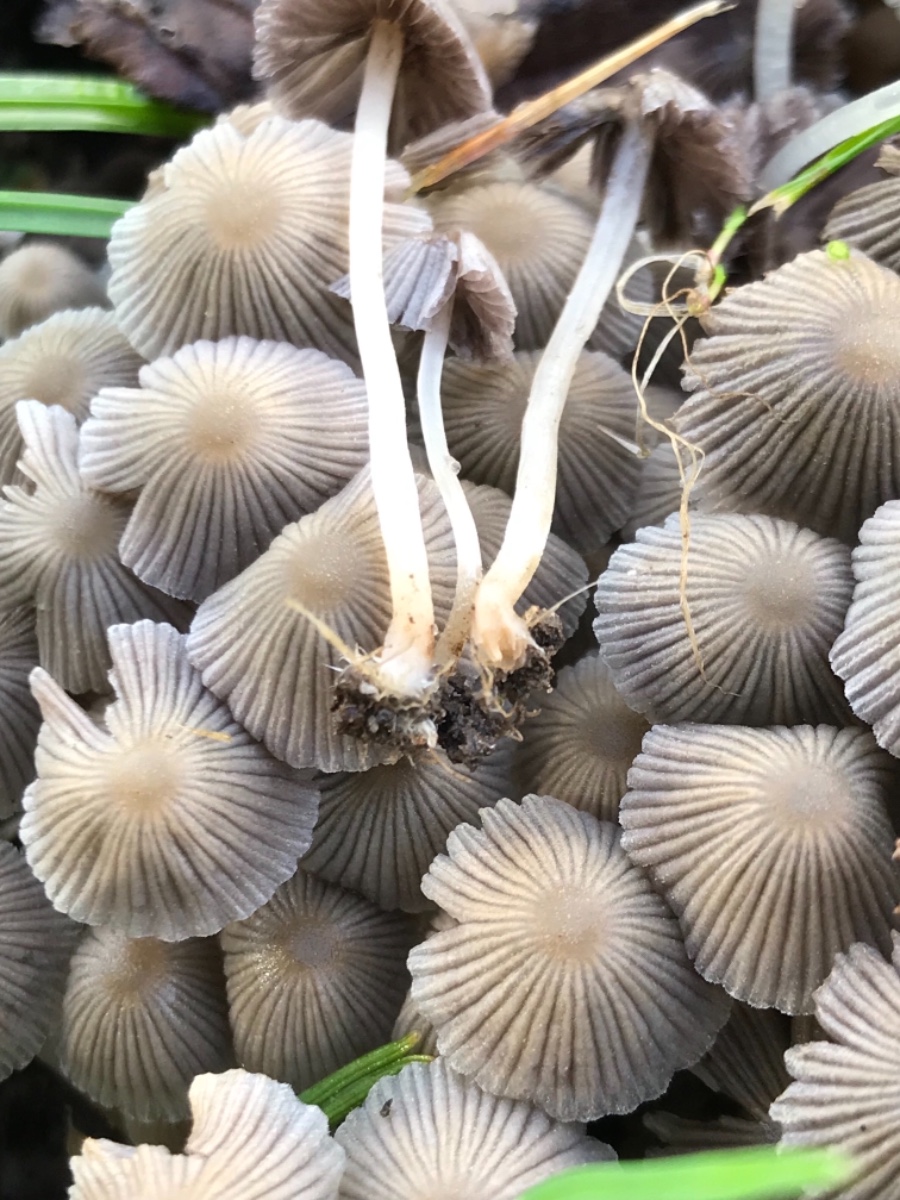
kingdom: Fungi
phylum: Basidiomycota
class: Agaricomycetes
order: Agaricales
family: Psathyrellaceae
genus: Coprinellus
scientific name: Coprinellus disseminatus
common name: bredsået blækhat
